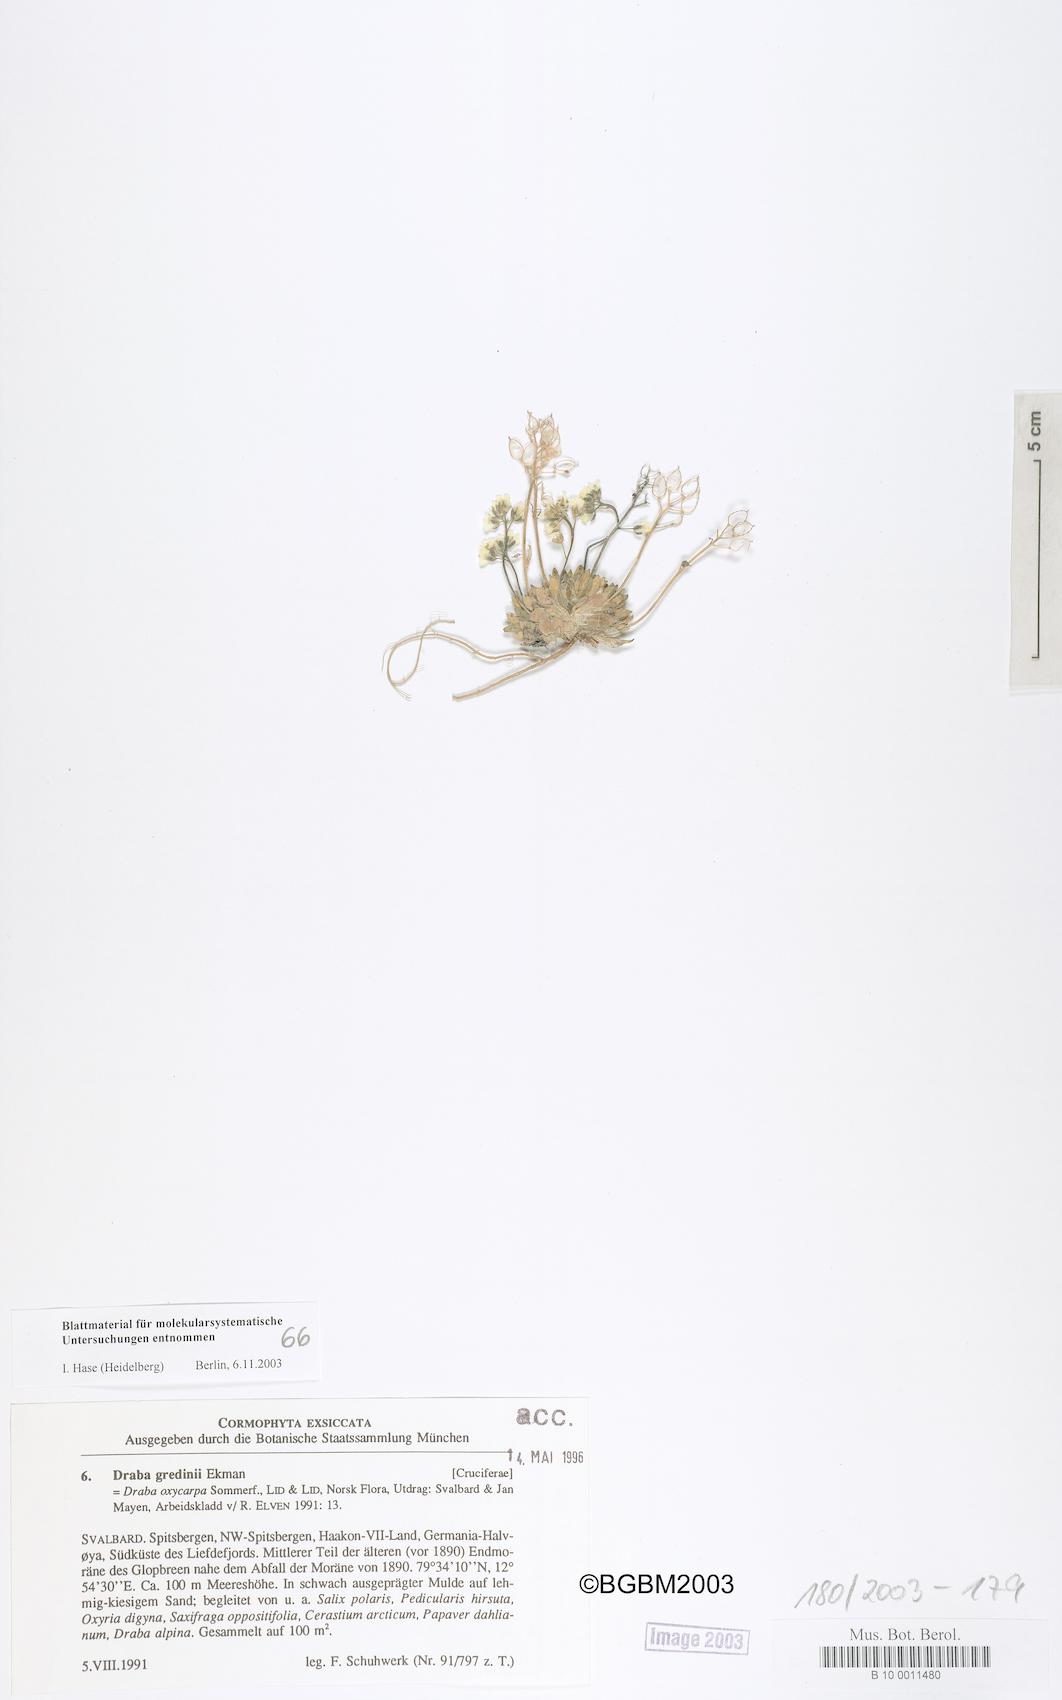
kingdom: Plantae
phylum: Tracheophyta
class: Magnoliopsida
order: Brassicales
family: Brassicaceae
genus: Draba
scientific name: Draba oxycarpa
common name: Sharp-fruited whitlow-grass
